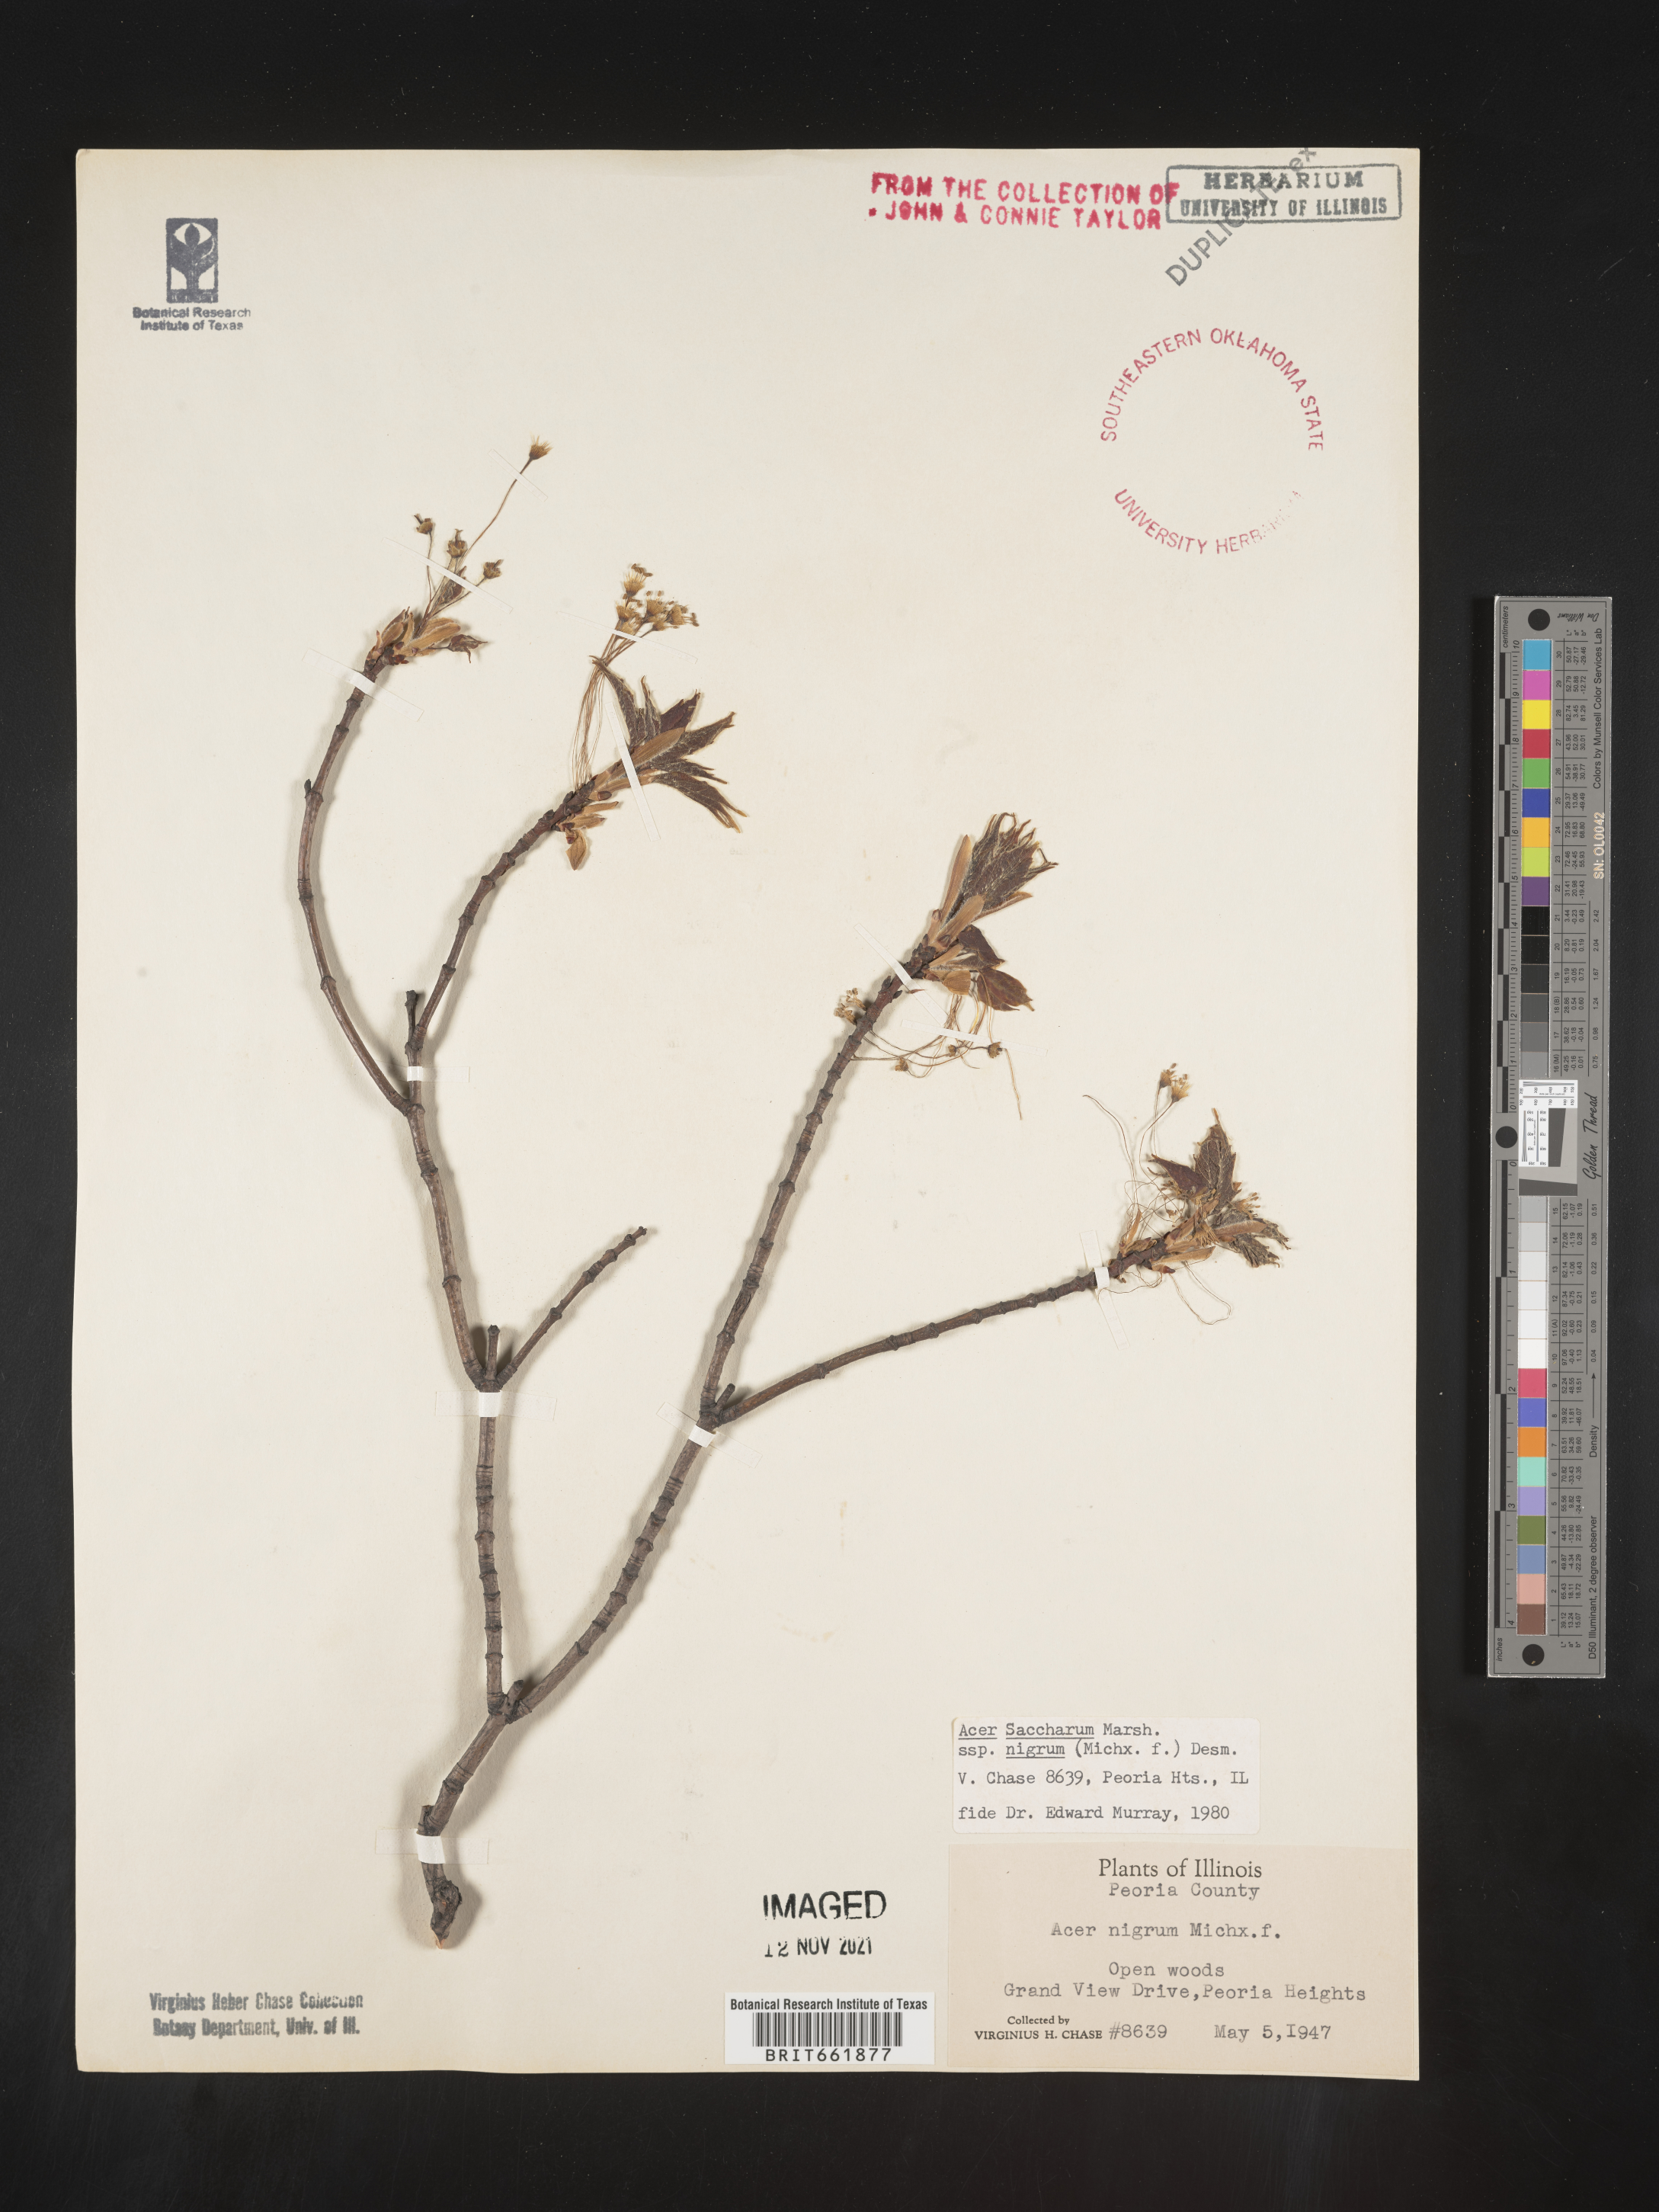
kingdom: Plantae
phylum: Tracheophyta
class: Magnoliopsida
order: Sapindales
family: Sapindaceae
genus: Acer
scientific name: Acer nigrum
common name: Black maple
